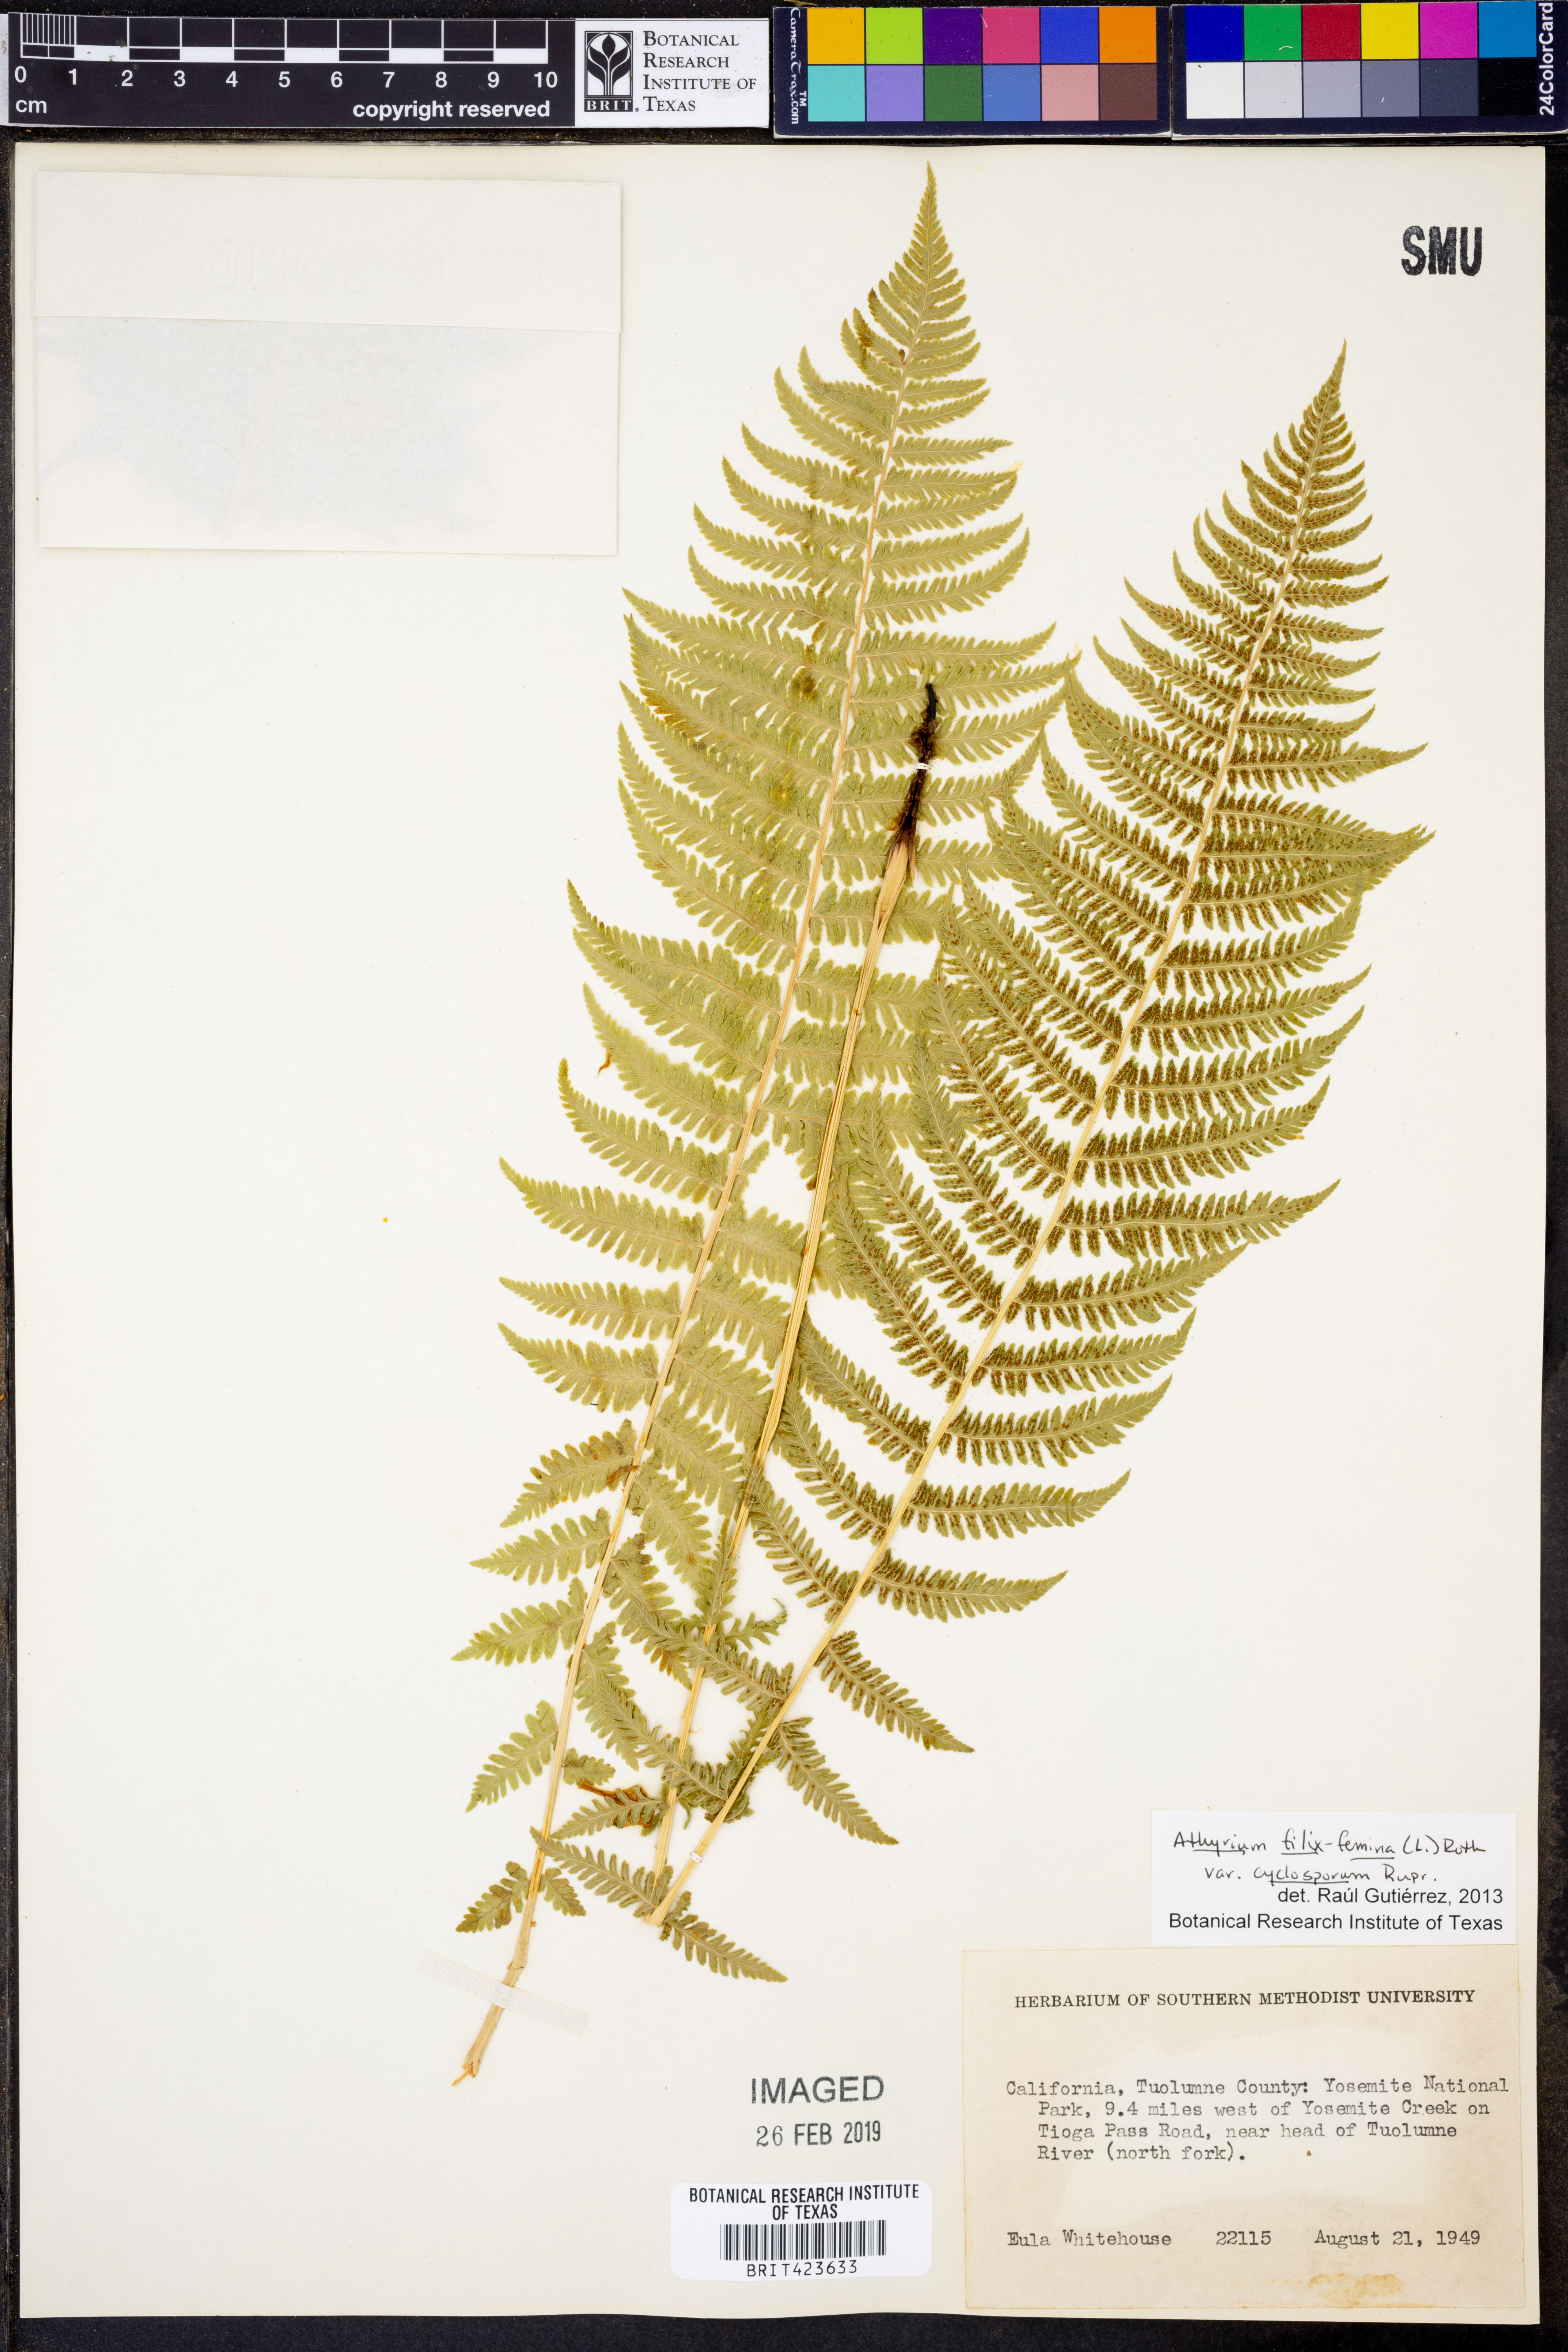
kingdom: Plantae
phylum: Tracheophyta
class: Polypodiopsida
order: Polypodiales
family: Athyriaceae
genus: Athyrium
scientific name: Athyrium filix-femina
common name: Lady fern
